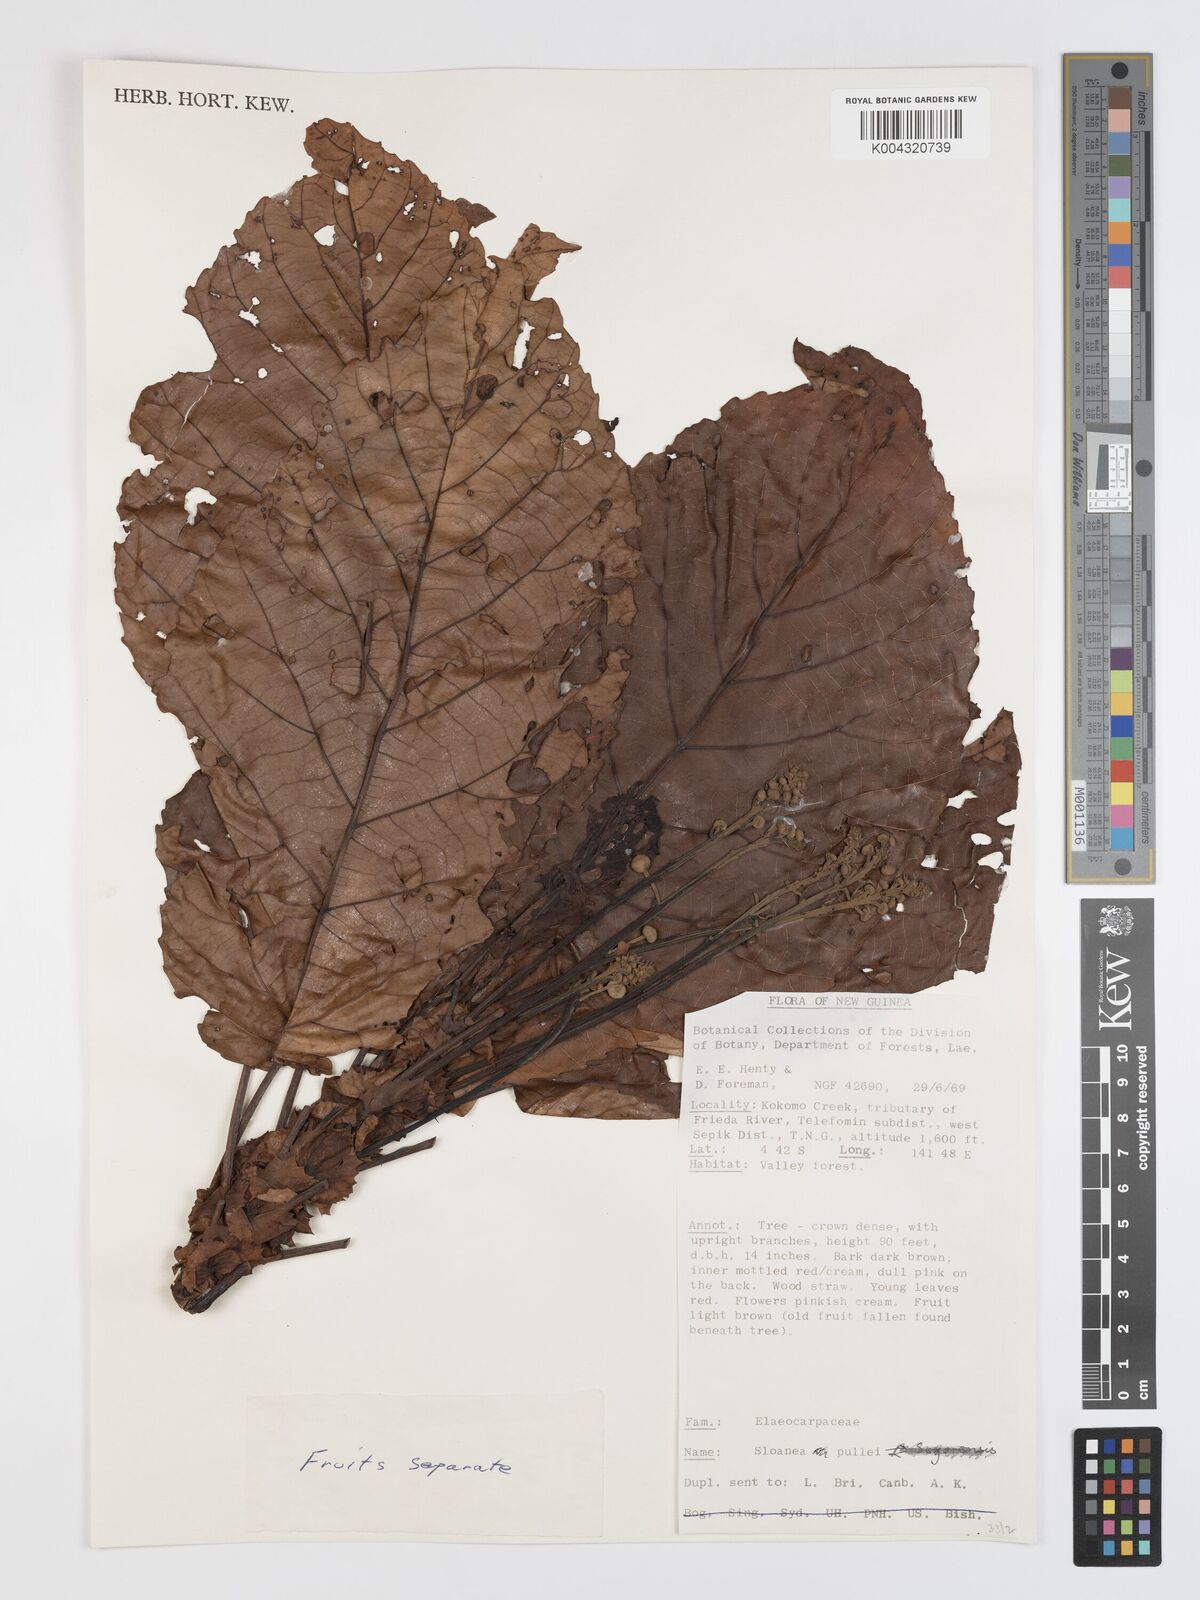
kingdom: Plantae
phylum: Tracheophyta
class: Magnoliopsida
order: Oxalidales
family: Elaeocarpaceae
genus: Sloanea
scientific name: Sloanea pullei
